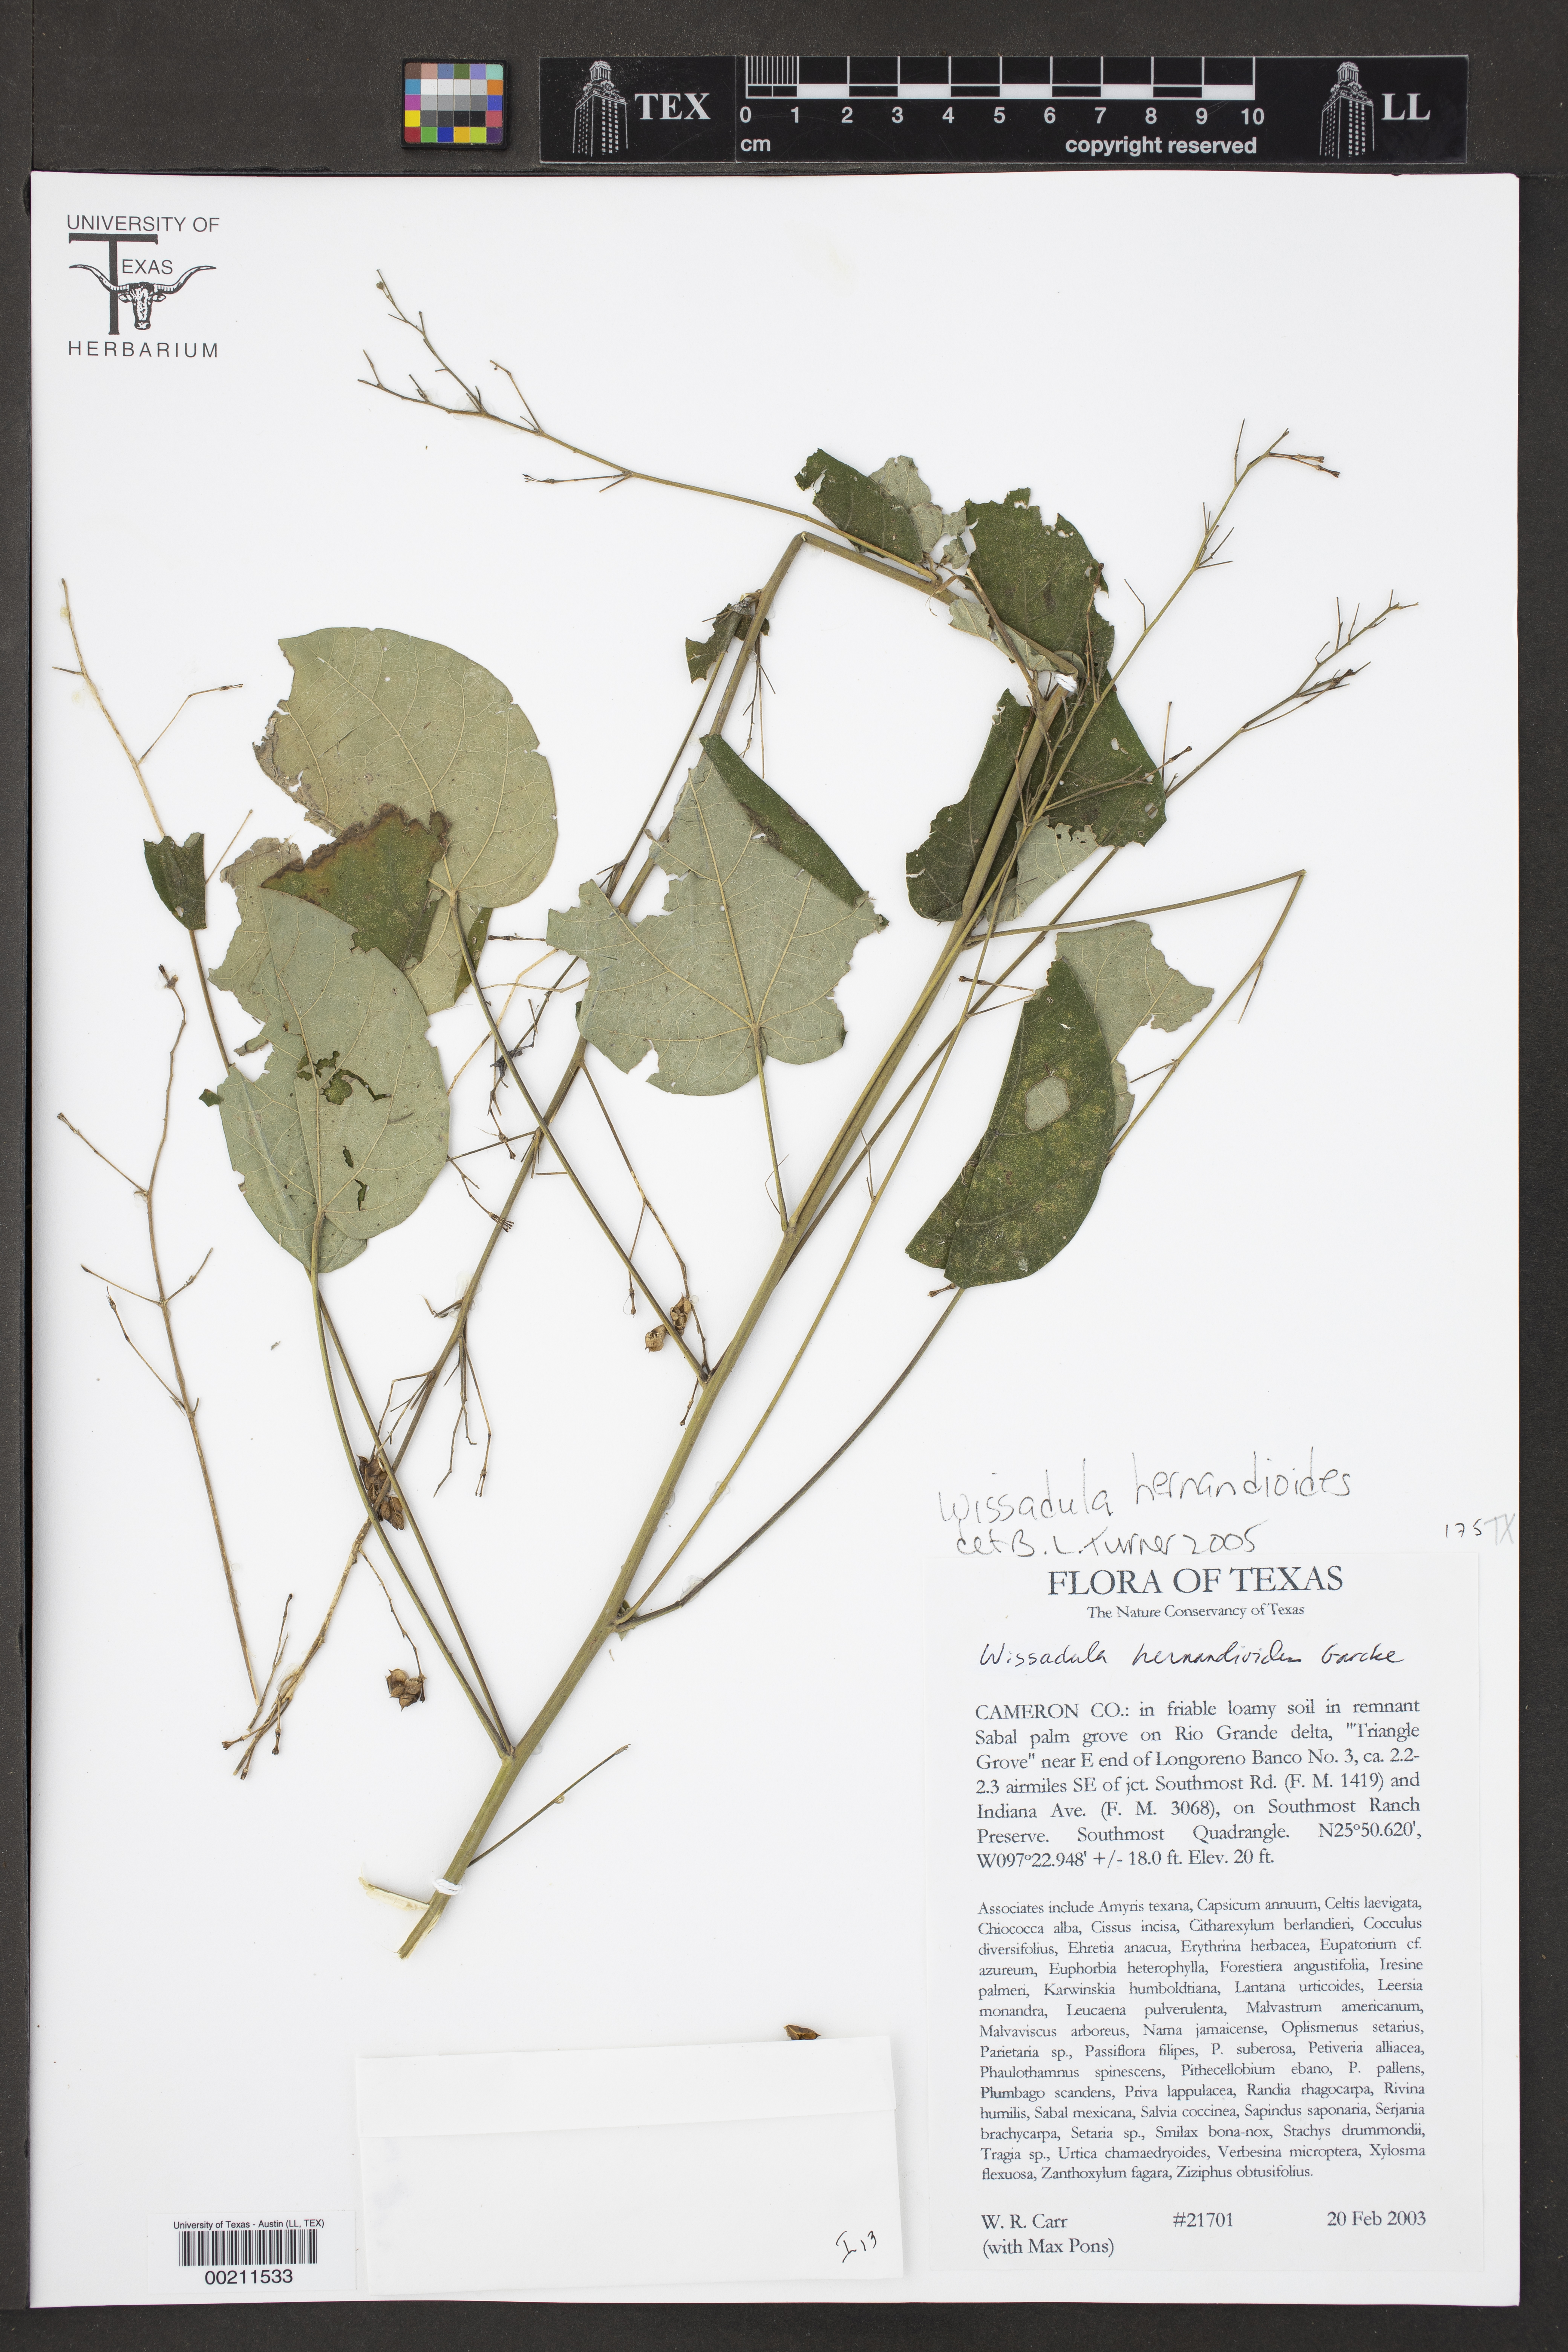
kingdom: Plantae
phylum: Tracheophyta
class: Magnoliopsida
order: Malvales
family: Malvaceae
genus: Wissadula
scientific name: Wissadula hernandioides
